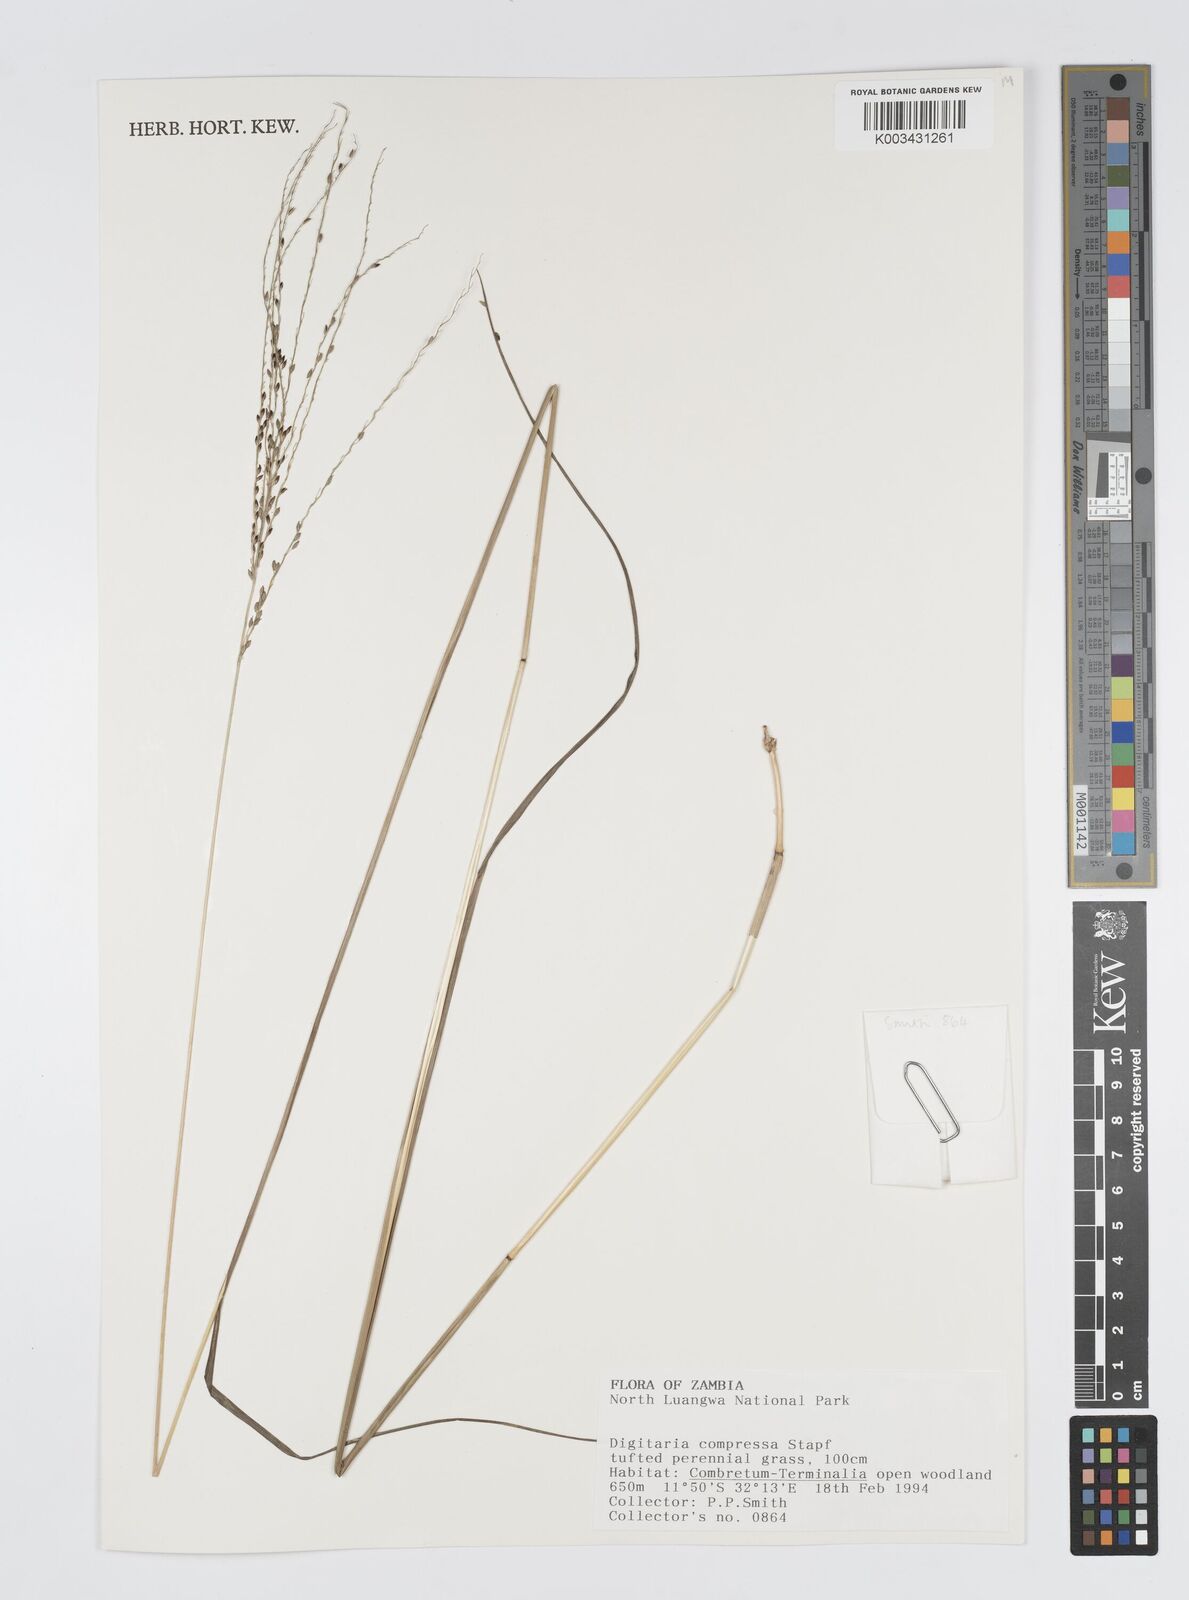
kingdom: Plantae
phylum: Tracheophyta
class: Liliopsida
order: Poales
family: Poaceae
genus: Digitaria
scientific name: Digitaria compressa
